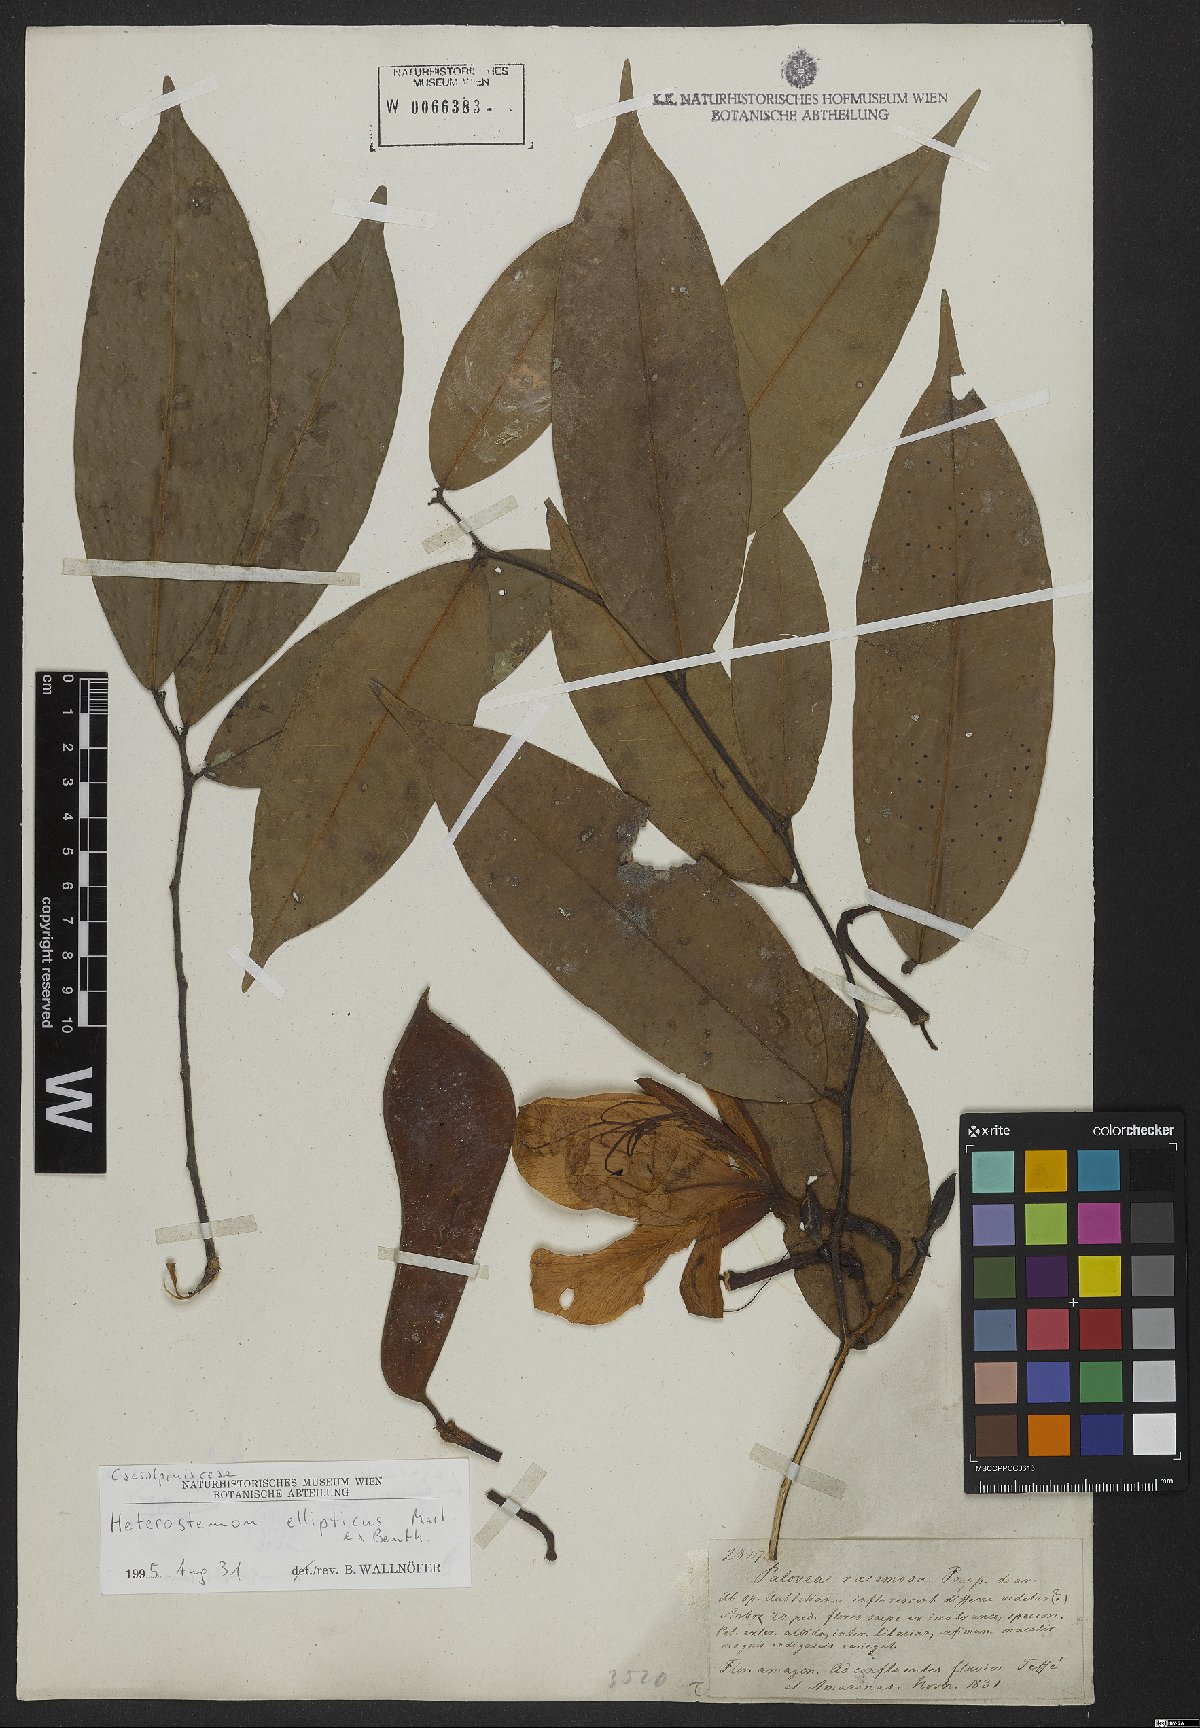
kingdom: Plantae
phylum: Tracheophyta
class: Magnoliopsida
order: Fabales
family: Fabaceae
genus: Heterostemon
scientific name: Heterostemon ellipticus
